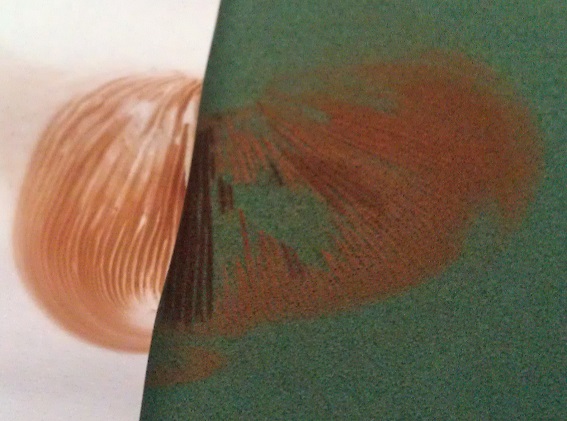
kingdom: Fungi
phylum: Basidiomycota
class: Agaricomycetes
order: Agaricales
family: Pluteaceae
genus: Pluteus
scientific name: Pluteus phlebophorus
